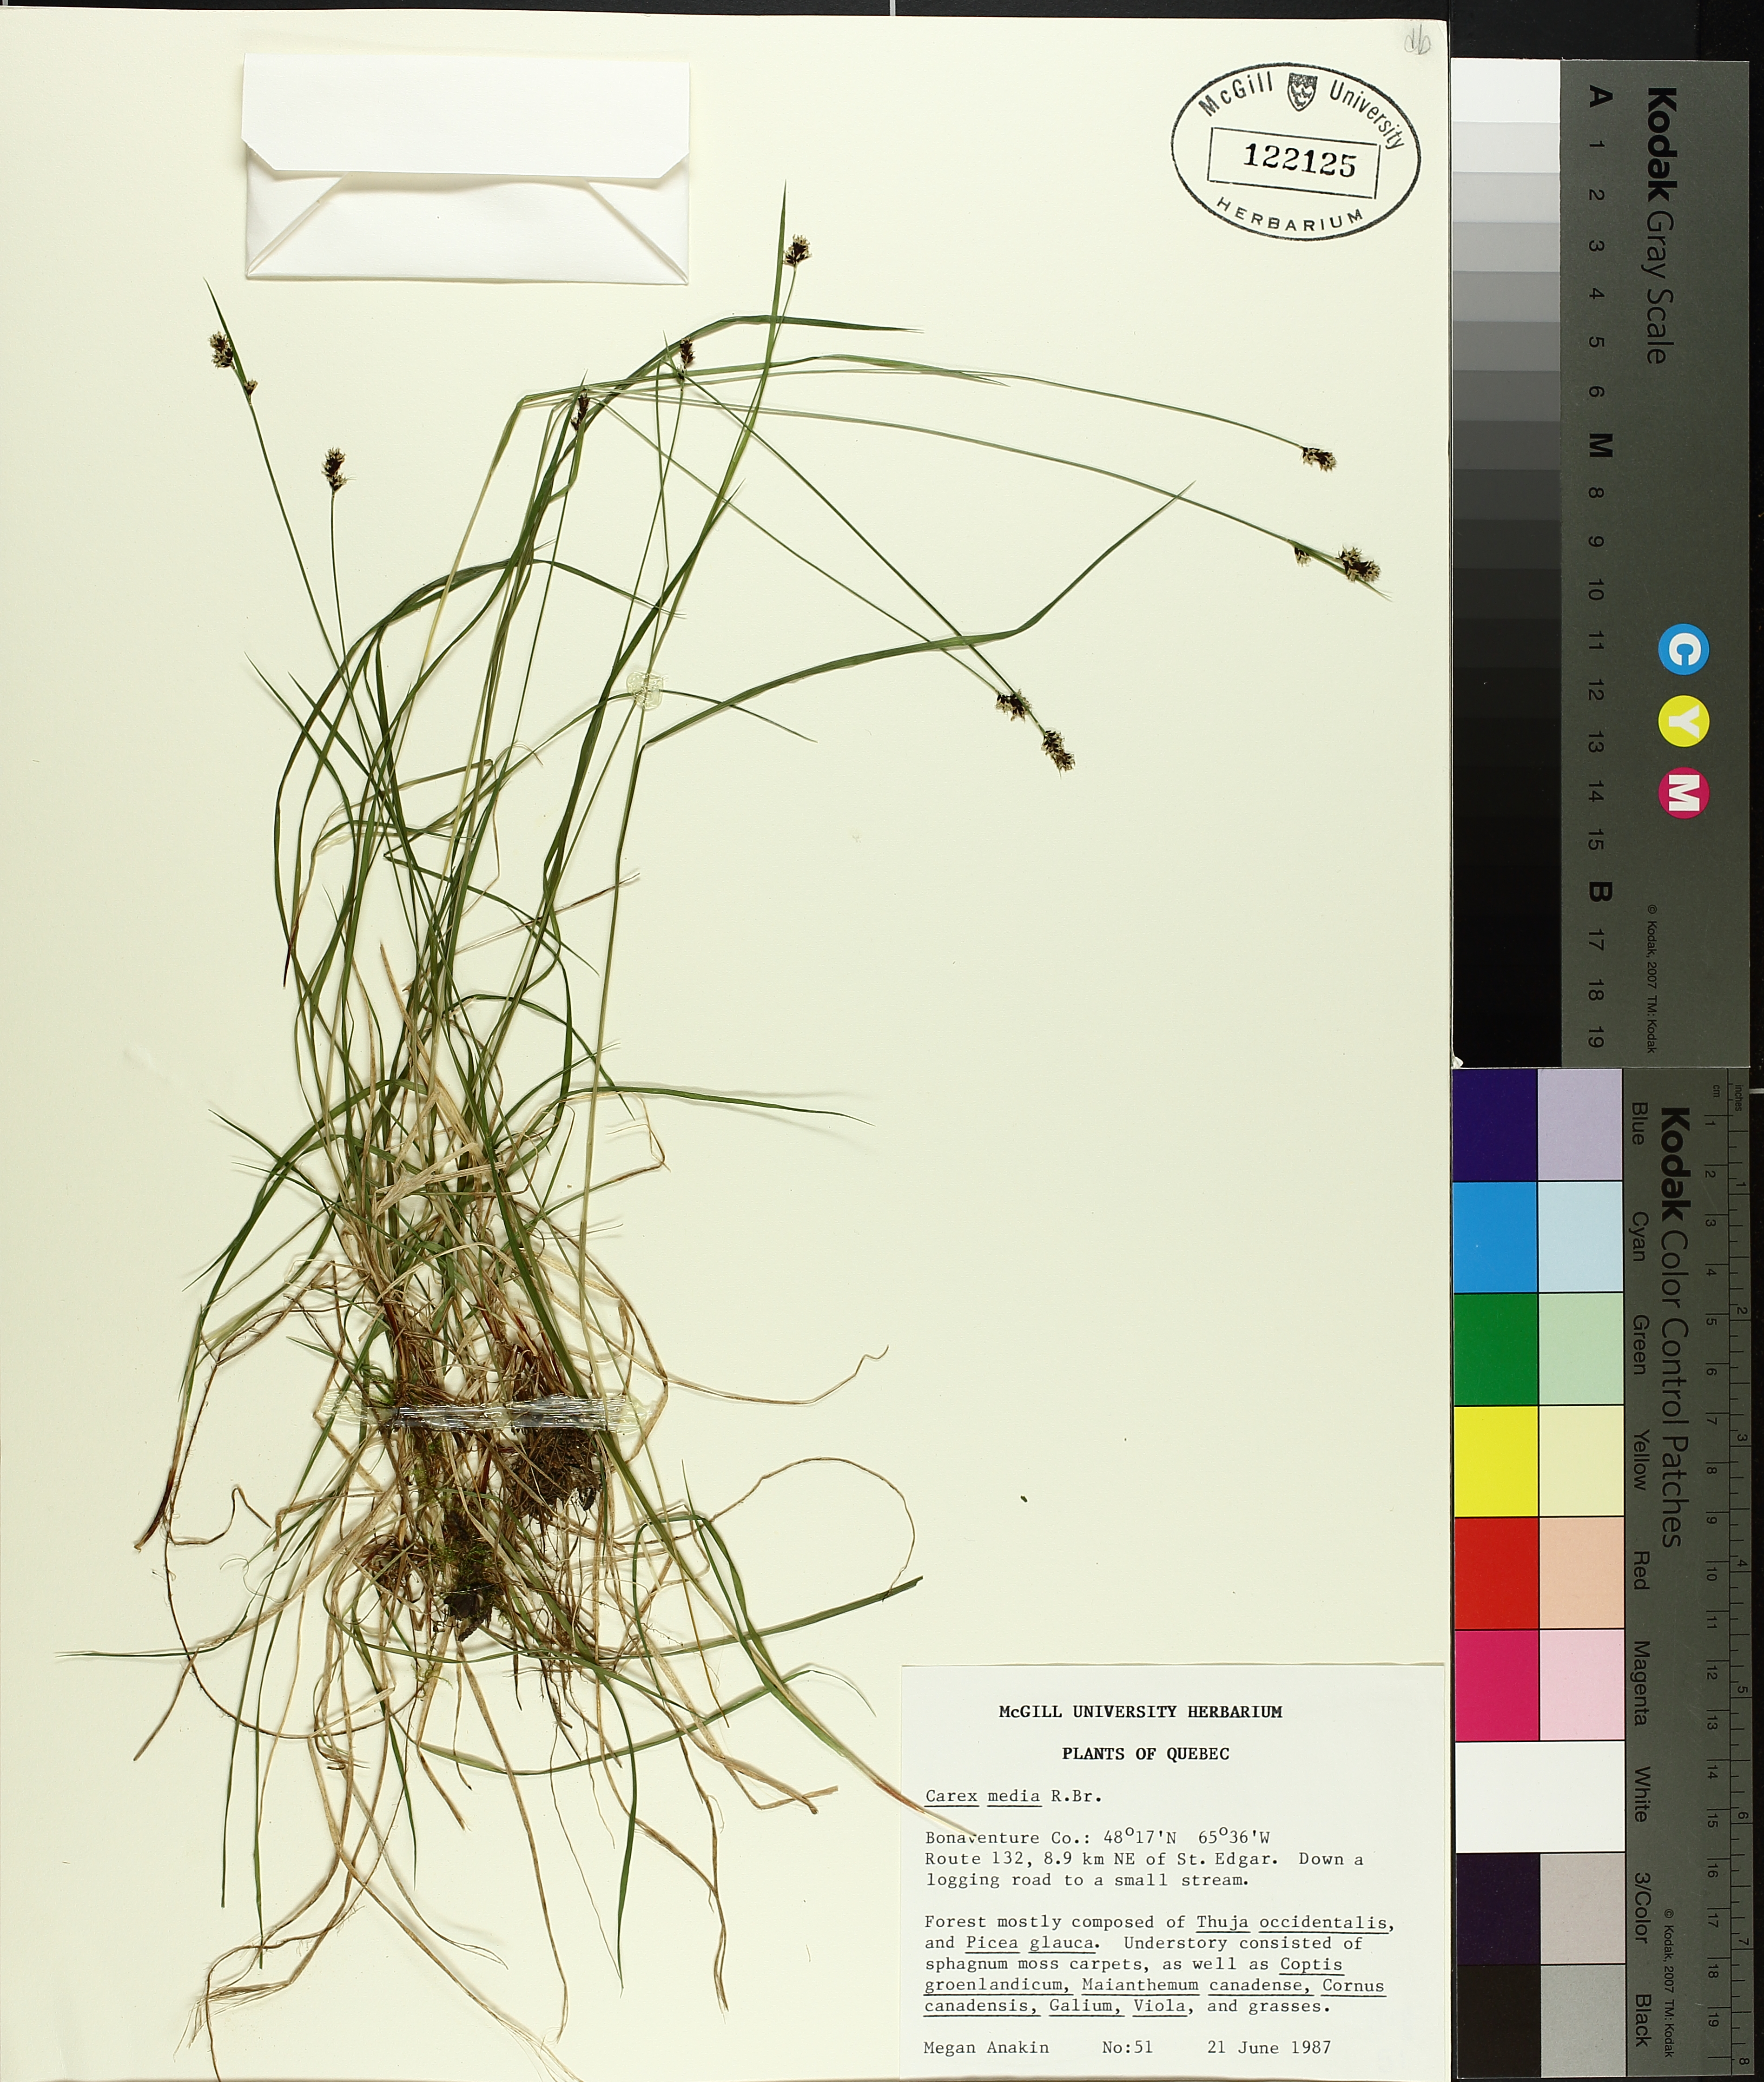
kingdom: Plantae
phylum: Tracheophyta
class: Liliopsida
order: Poales
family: Cyperaceae
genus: Carex
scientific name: Carex media
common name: Alpine sedge
